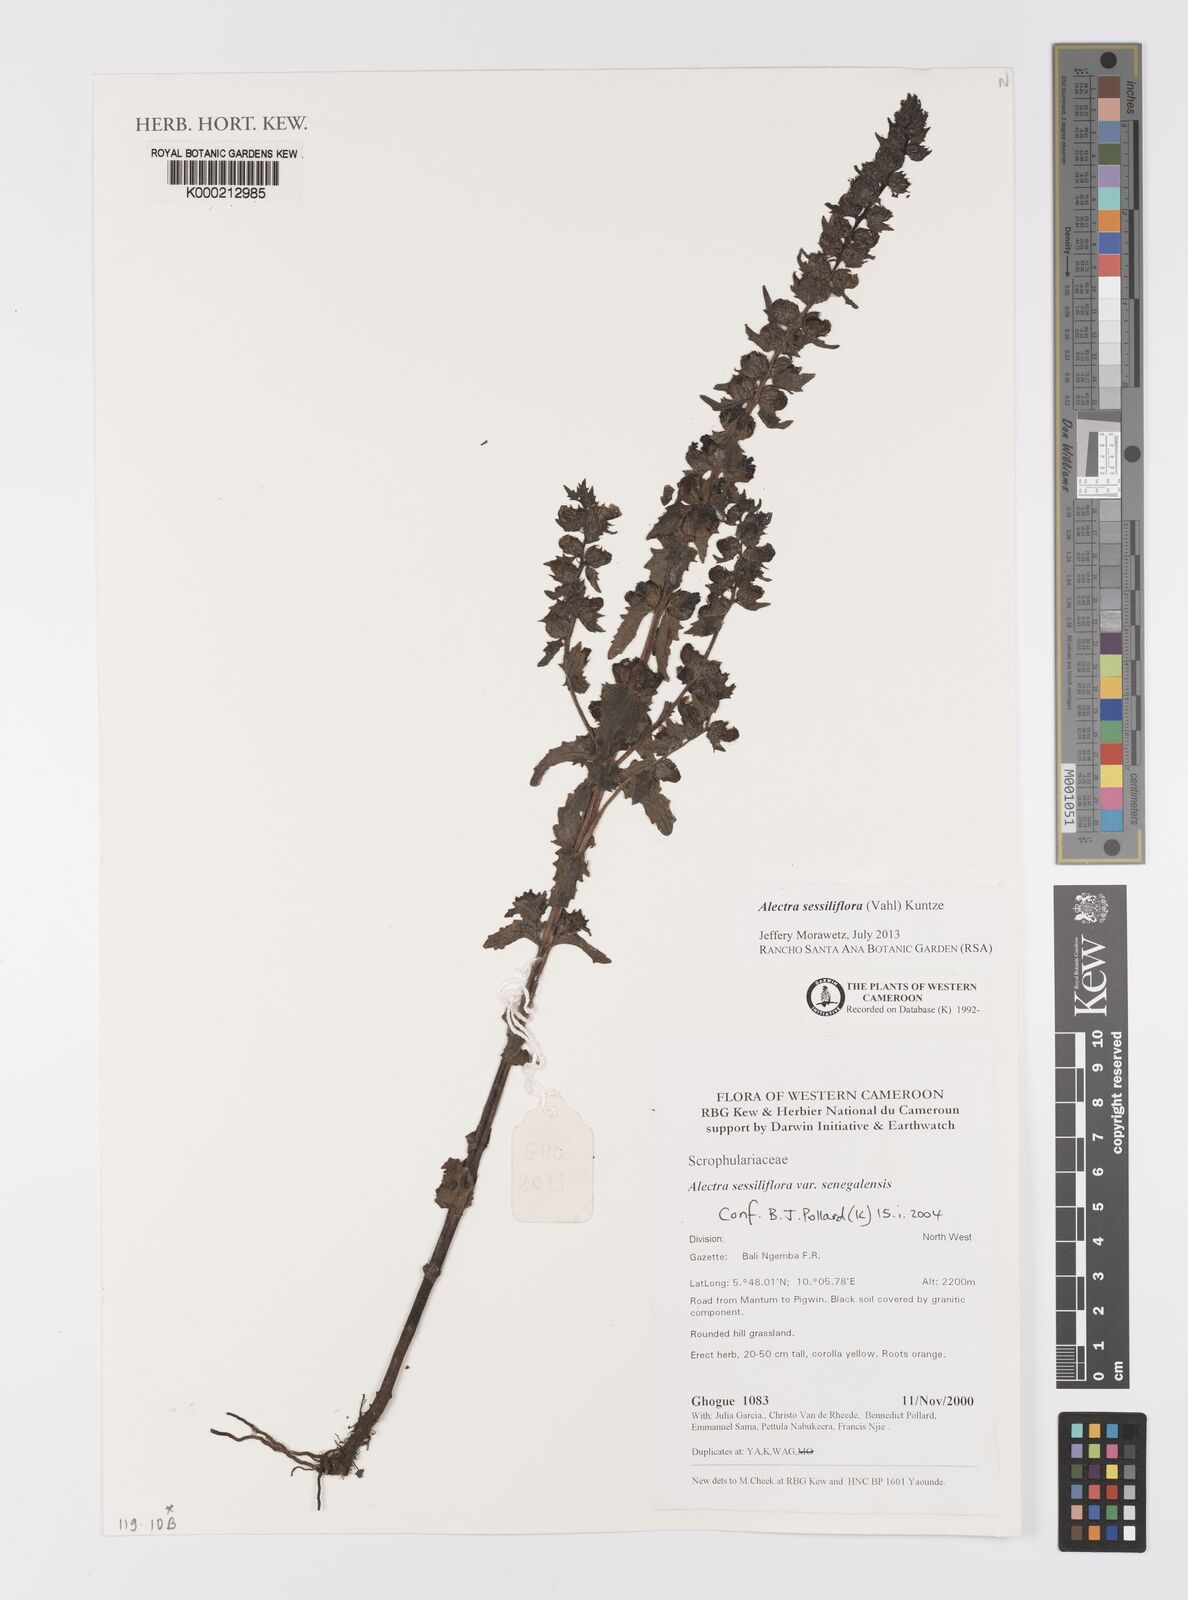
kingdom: Plantae
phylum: Tracheophyta
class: Magnoliopsida
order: Lamiales
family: Orobanchaceae
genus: Alectra
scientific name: Alectra sessiliflora
